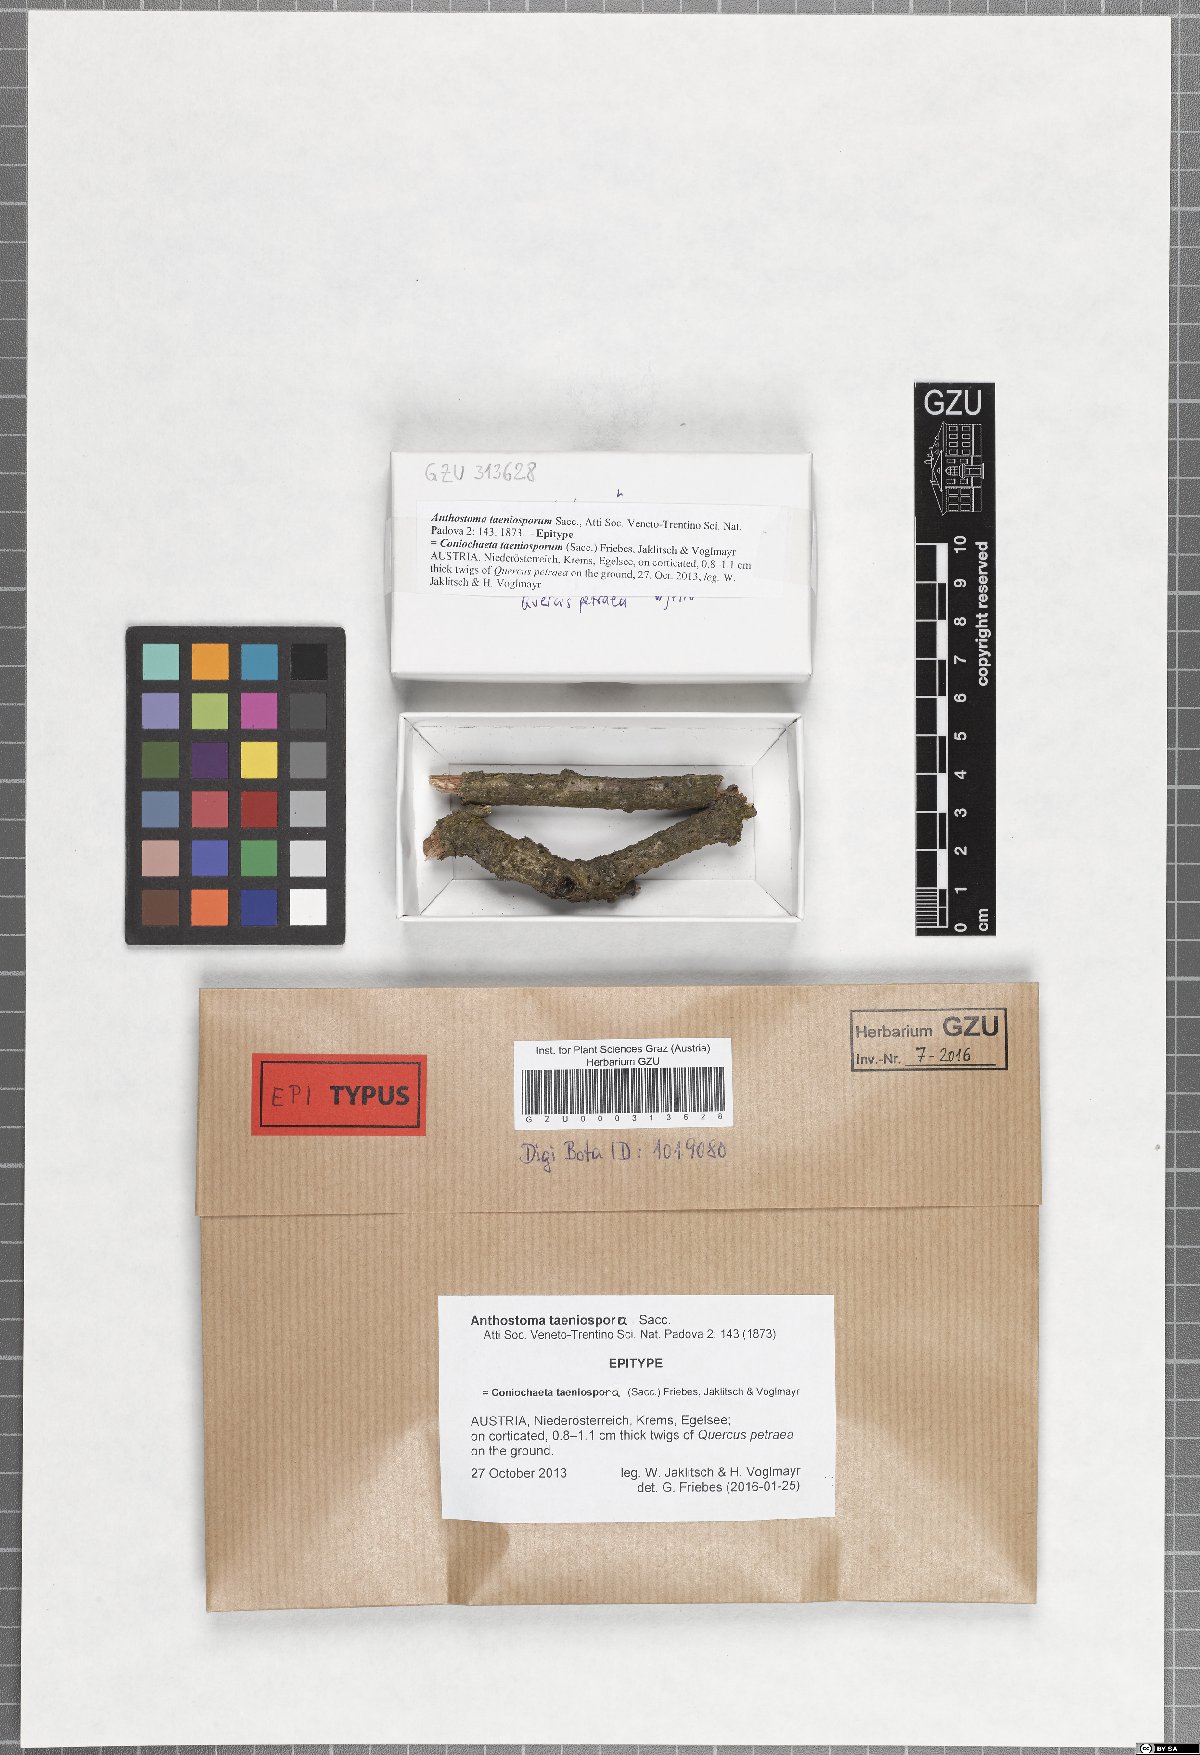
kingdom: Fungi
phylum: Ascomycota
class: Sordariomycetes
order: Coniochaetales
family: Coniochaetaceae
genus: Coniochaeta
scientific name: Coniochaeta taeniospora
